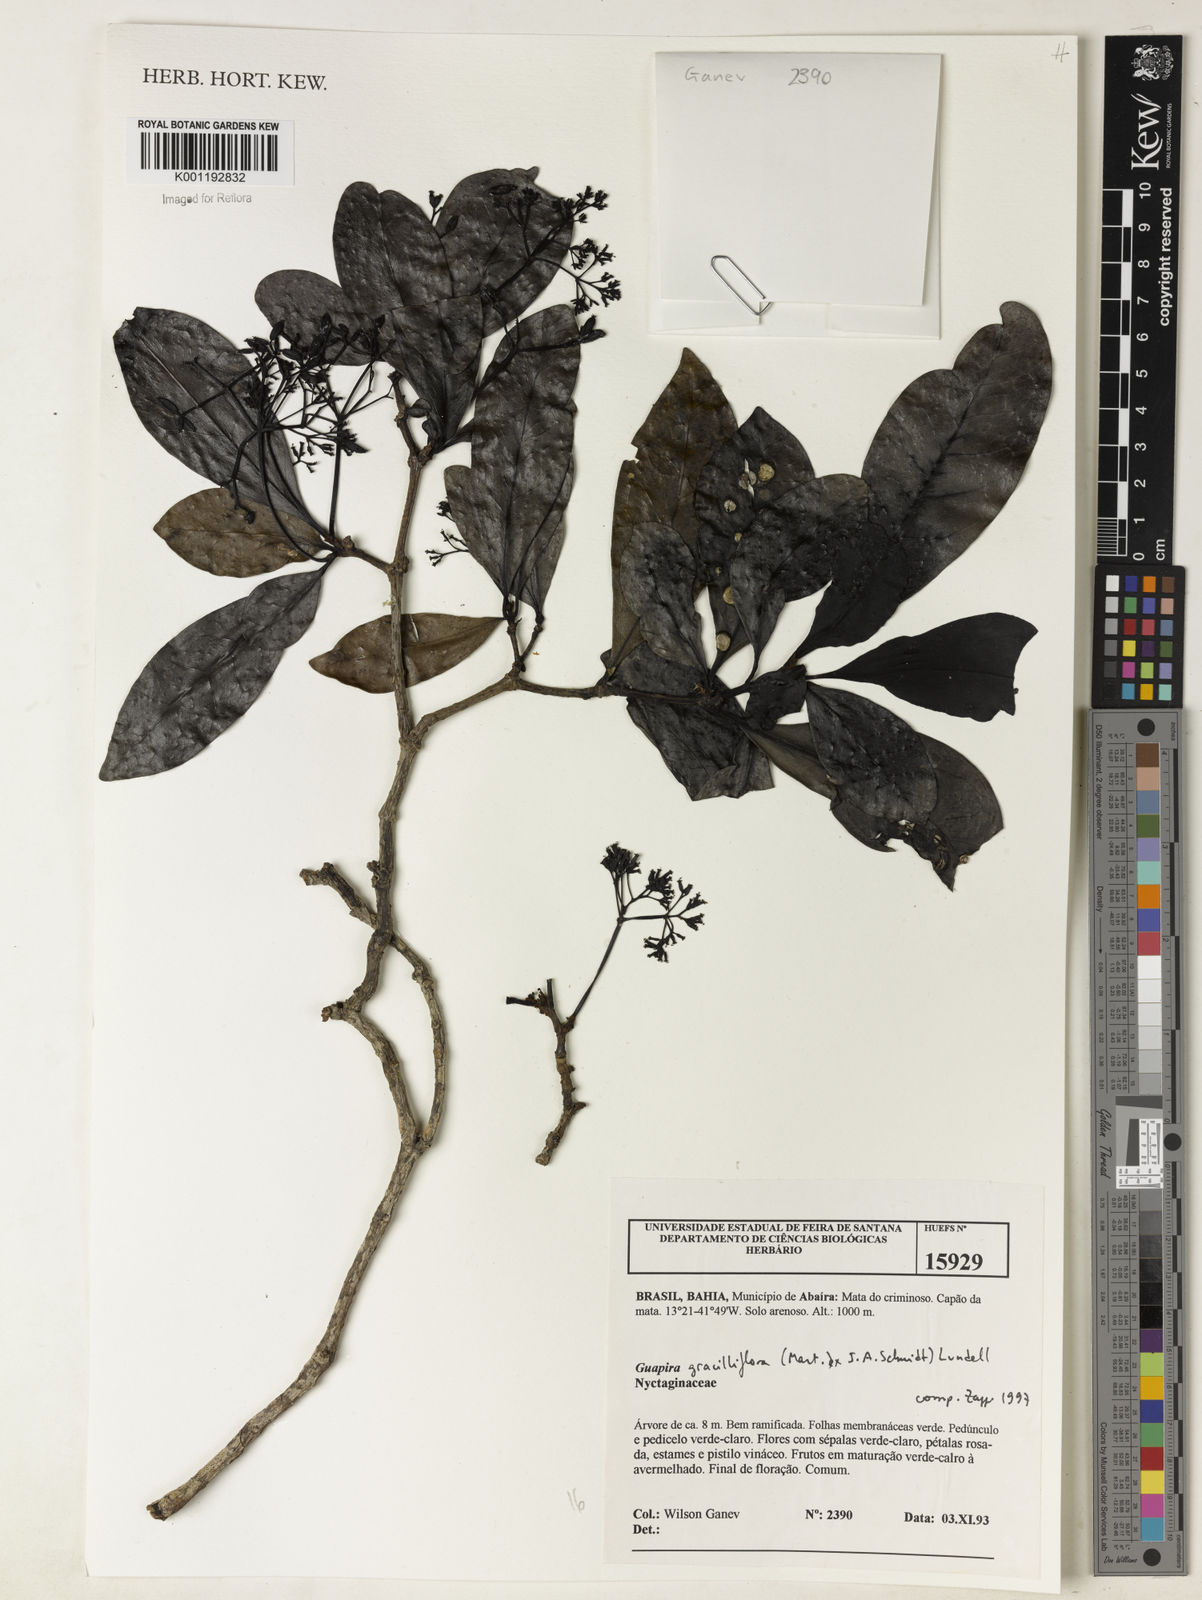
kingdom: Plantae
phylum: Tracheophyta
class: Magnoliopsida
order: Caryophyllales
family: Nyctaginaceae
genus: Guapira
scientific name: Guapira graciliflora
